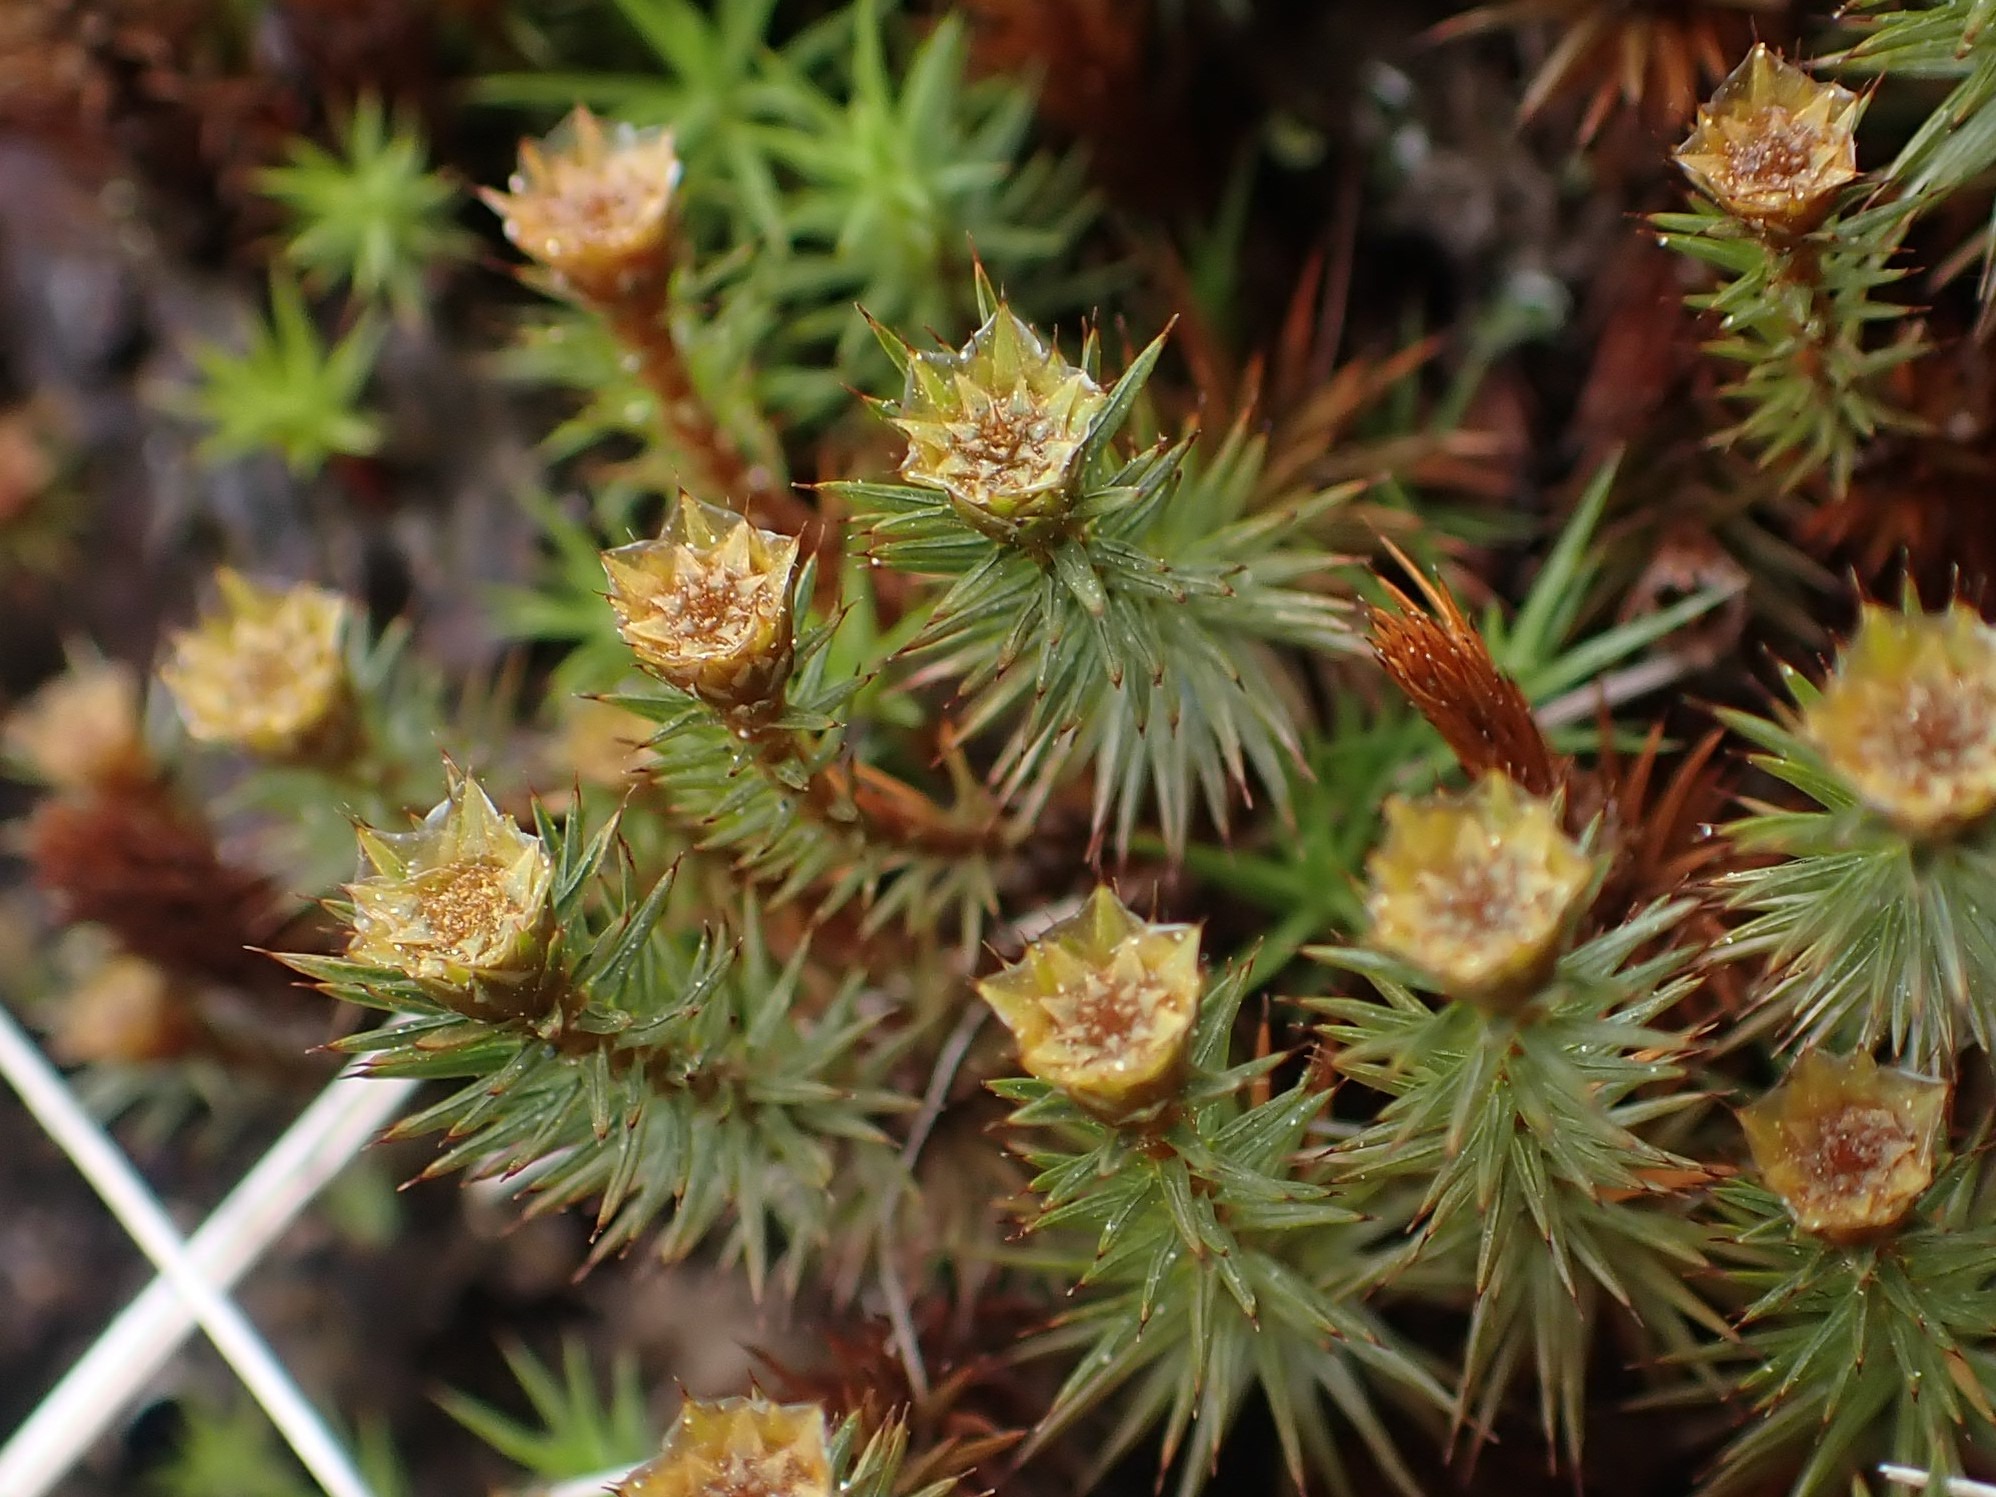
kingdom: Plantae
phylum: Bryophyta
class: Polytrichopsida
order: Polytrichales
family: Polytrichaceae
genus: Polytrichum
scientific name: Polytrichum juniperinum
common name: Ene-jomfruhår
